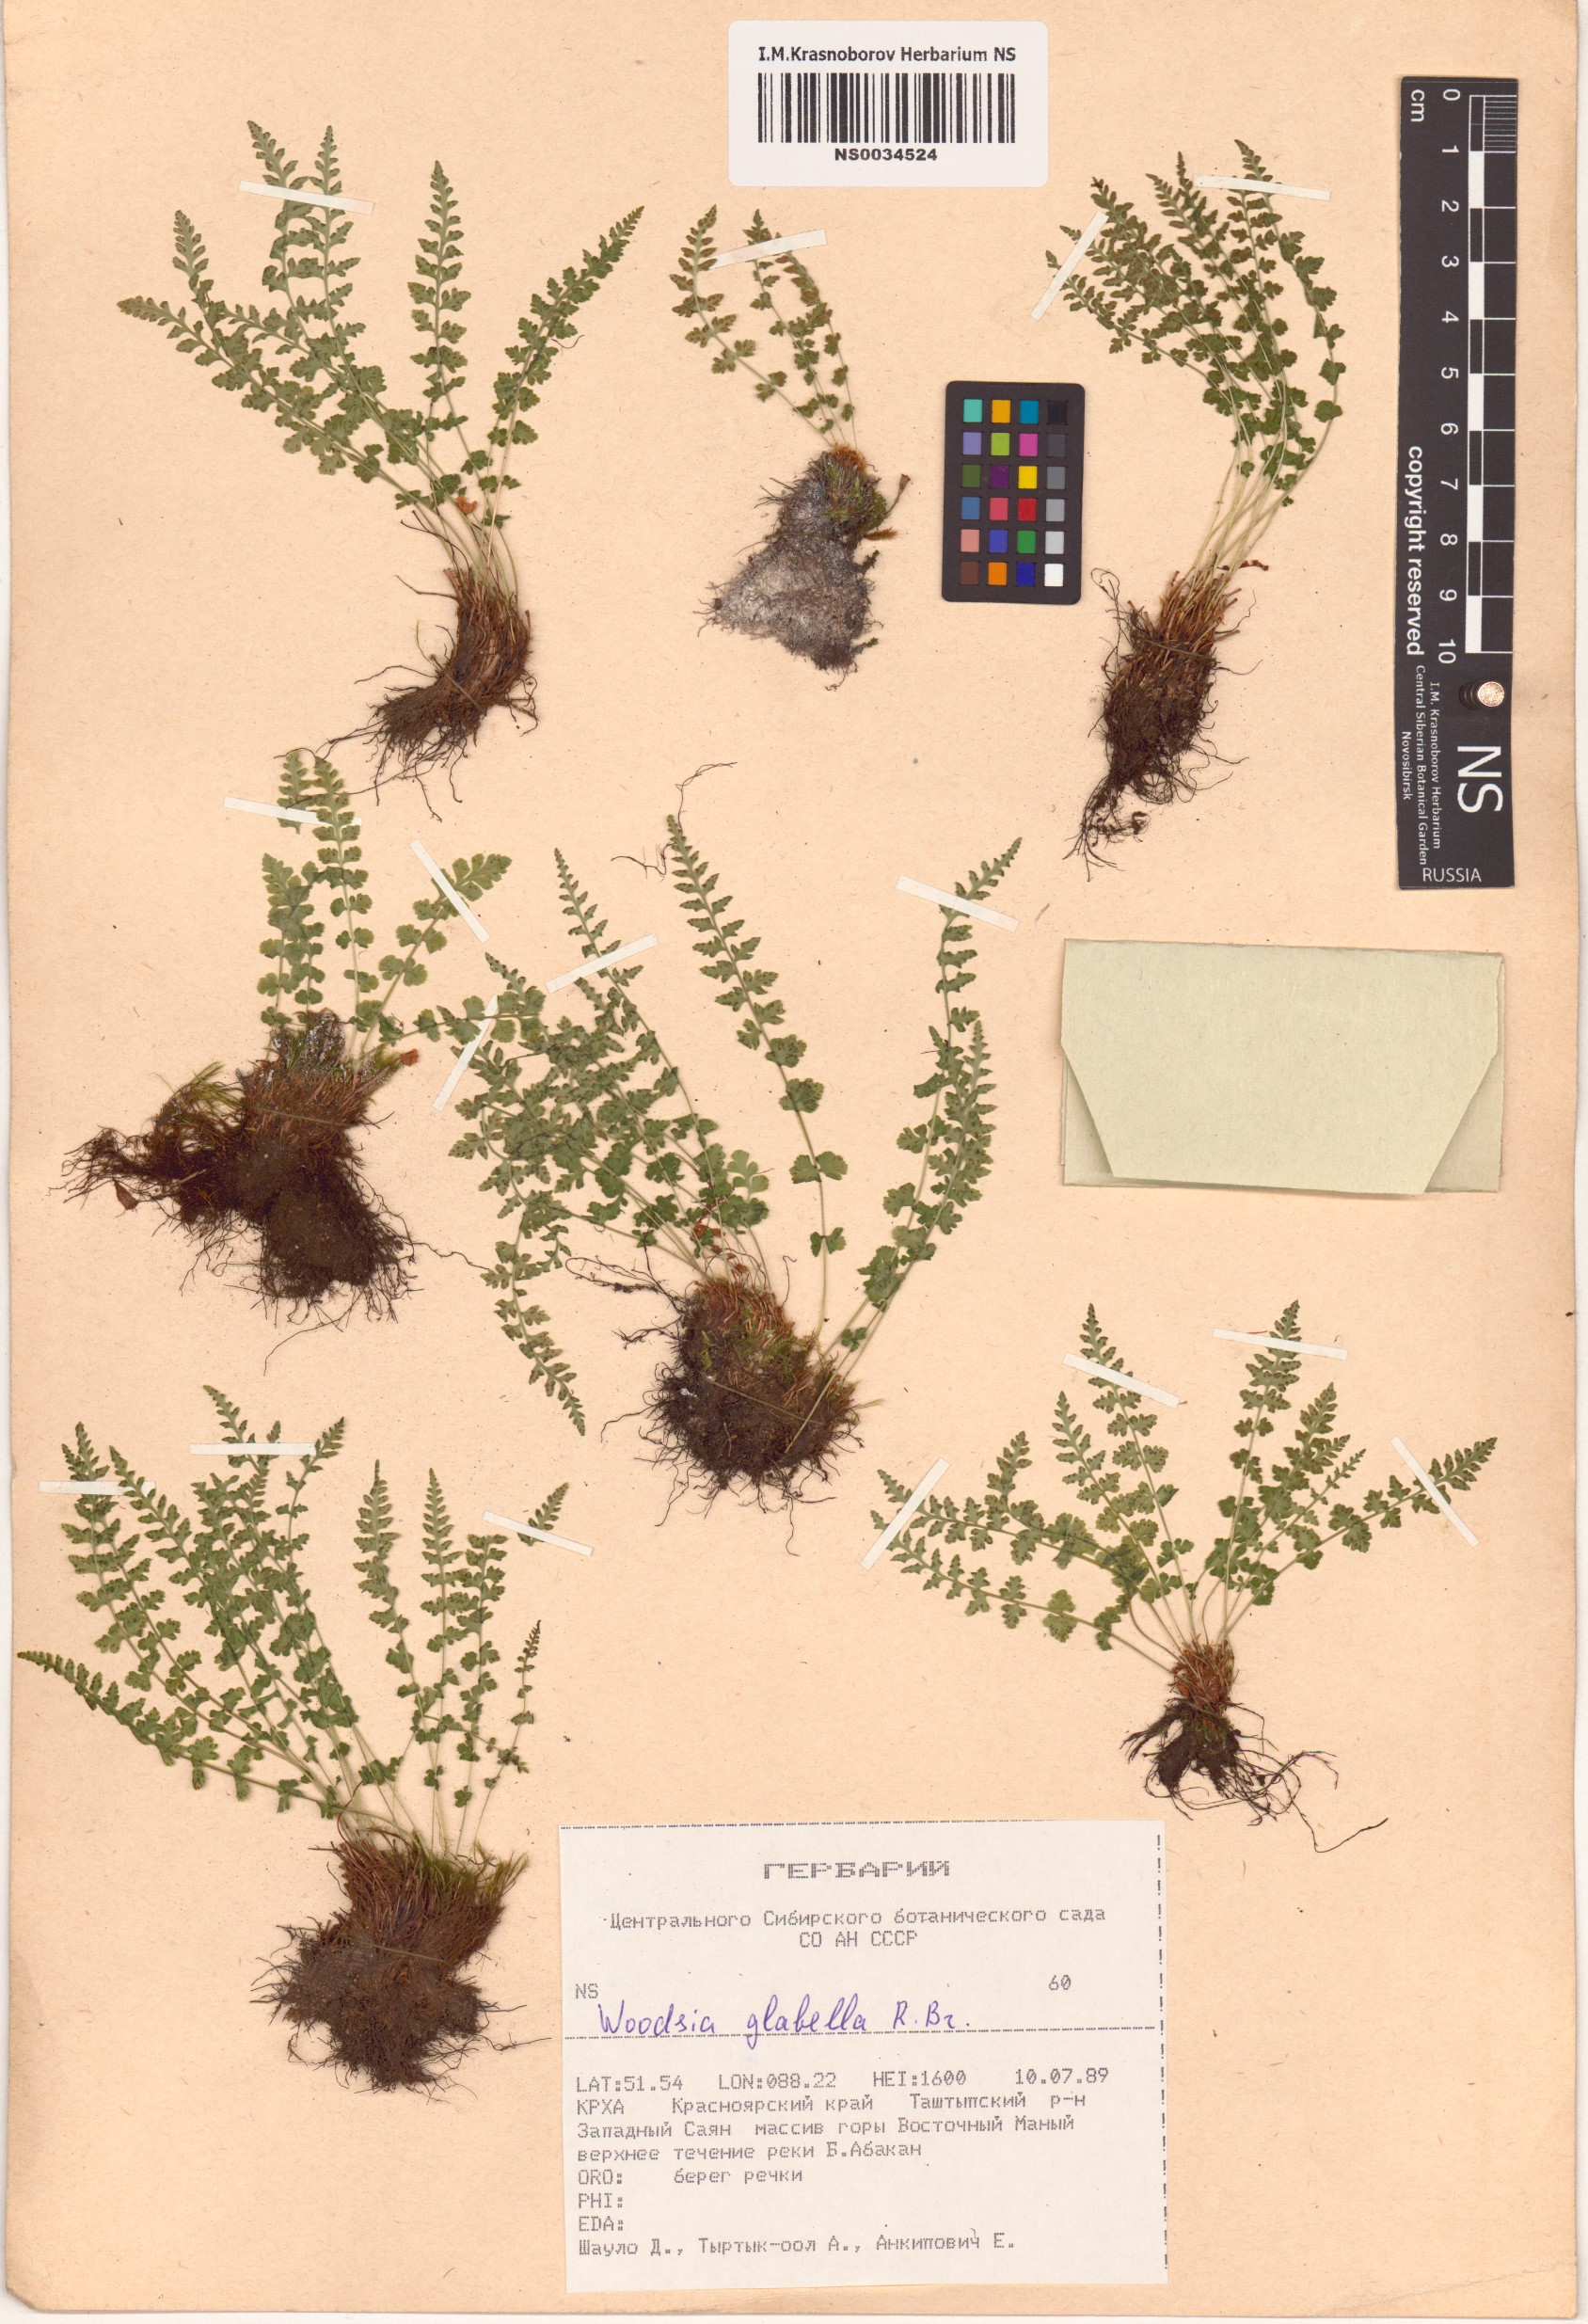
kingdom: Plantae
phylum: Tracheophyta
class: Polypodiopsida
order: Polypodiales
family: Woodsiaceae
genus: Woodsia
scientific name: Woodsia glabella
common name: Smooth woodsia
